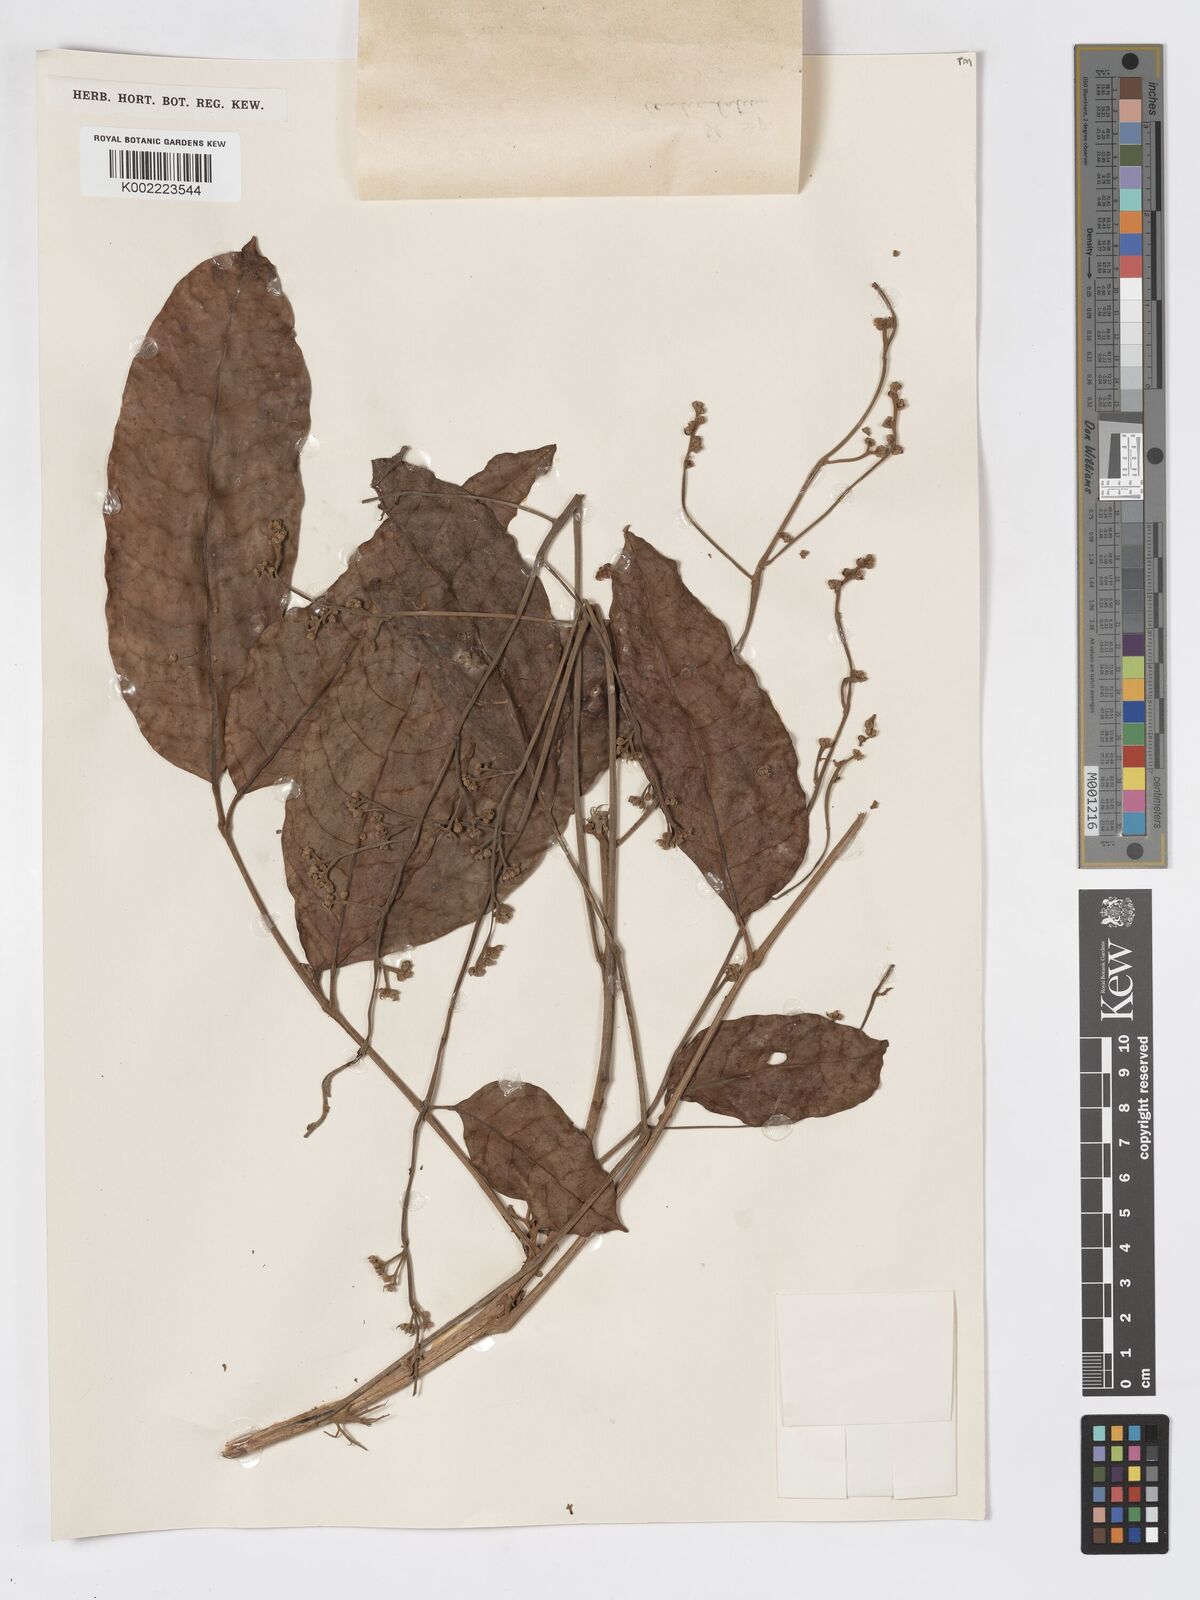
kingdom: Plantae
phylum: Tracheophyta
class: Magnoliopsida
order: Sapindales
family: Burseraceae
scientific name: Burseraceae
